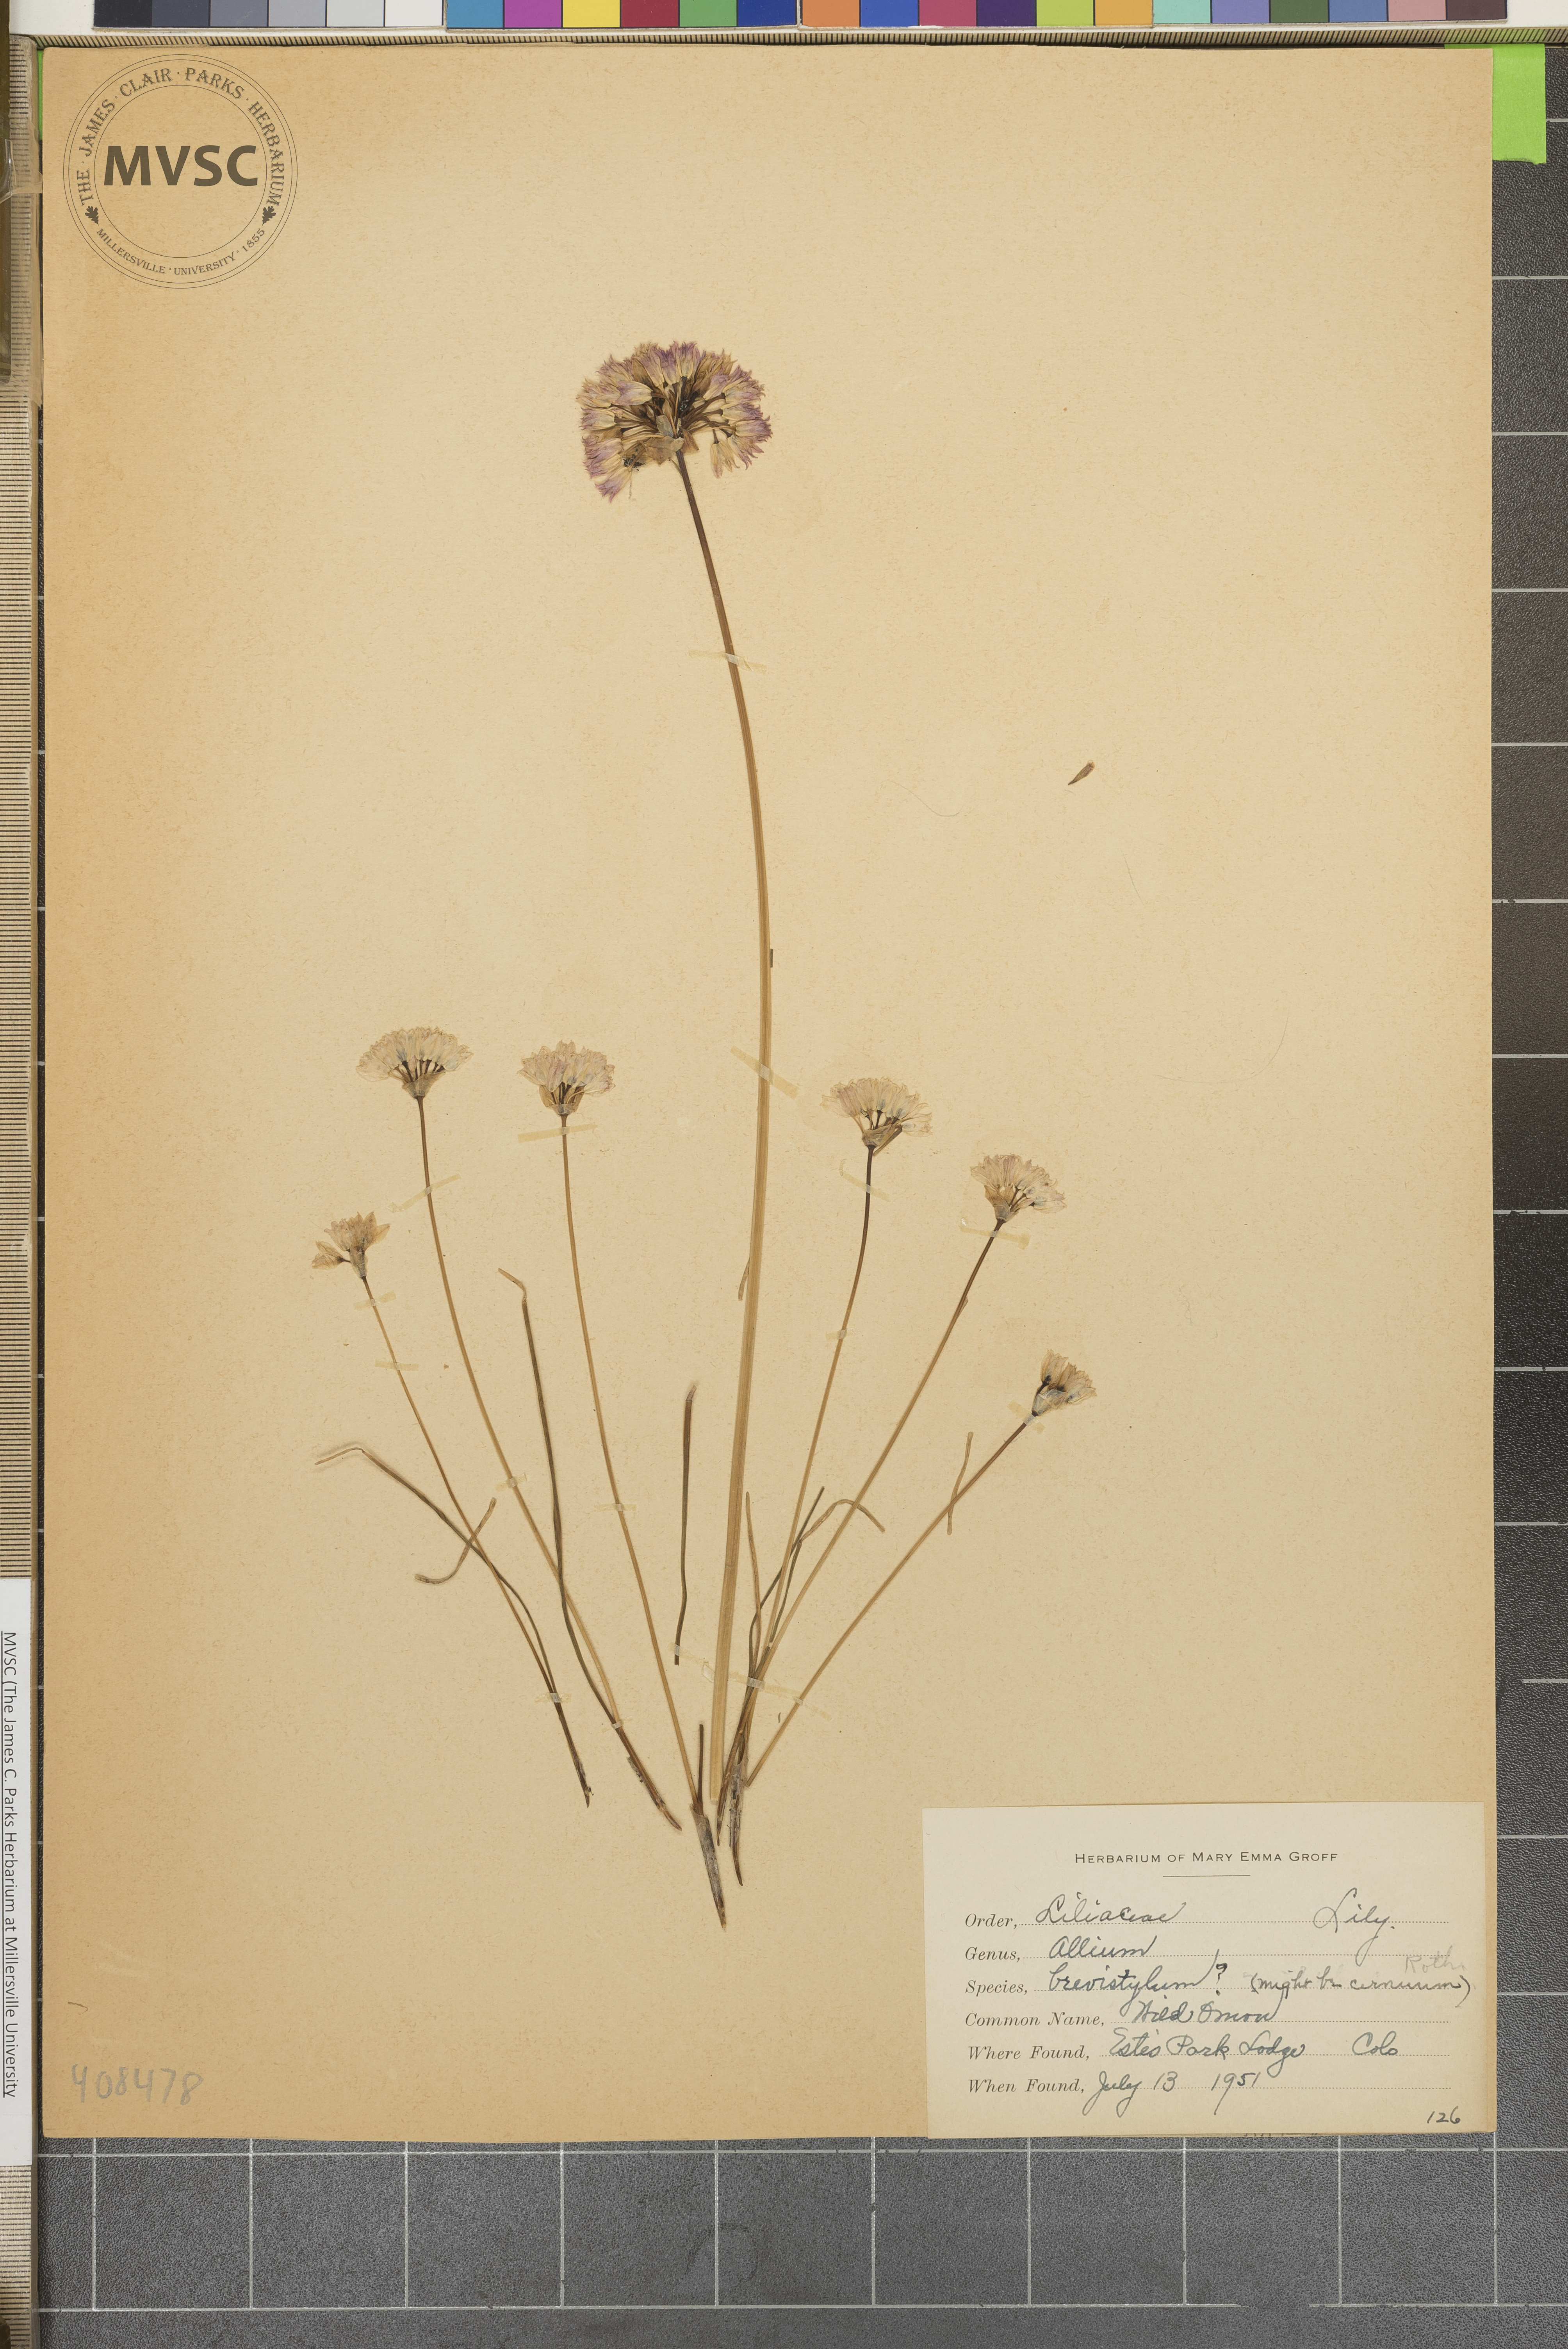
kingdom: Plantae
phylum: Tracheophyta
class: Liliopsida
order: Asparagales
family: Amaryllidaceae
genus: Allium
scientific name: Allium brevistylum
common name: Wild Onion
